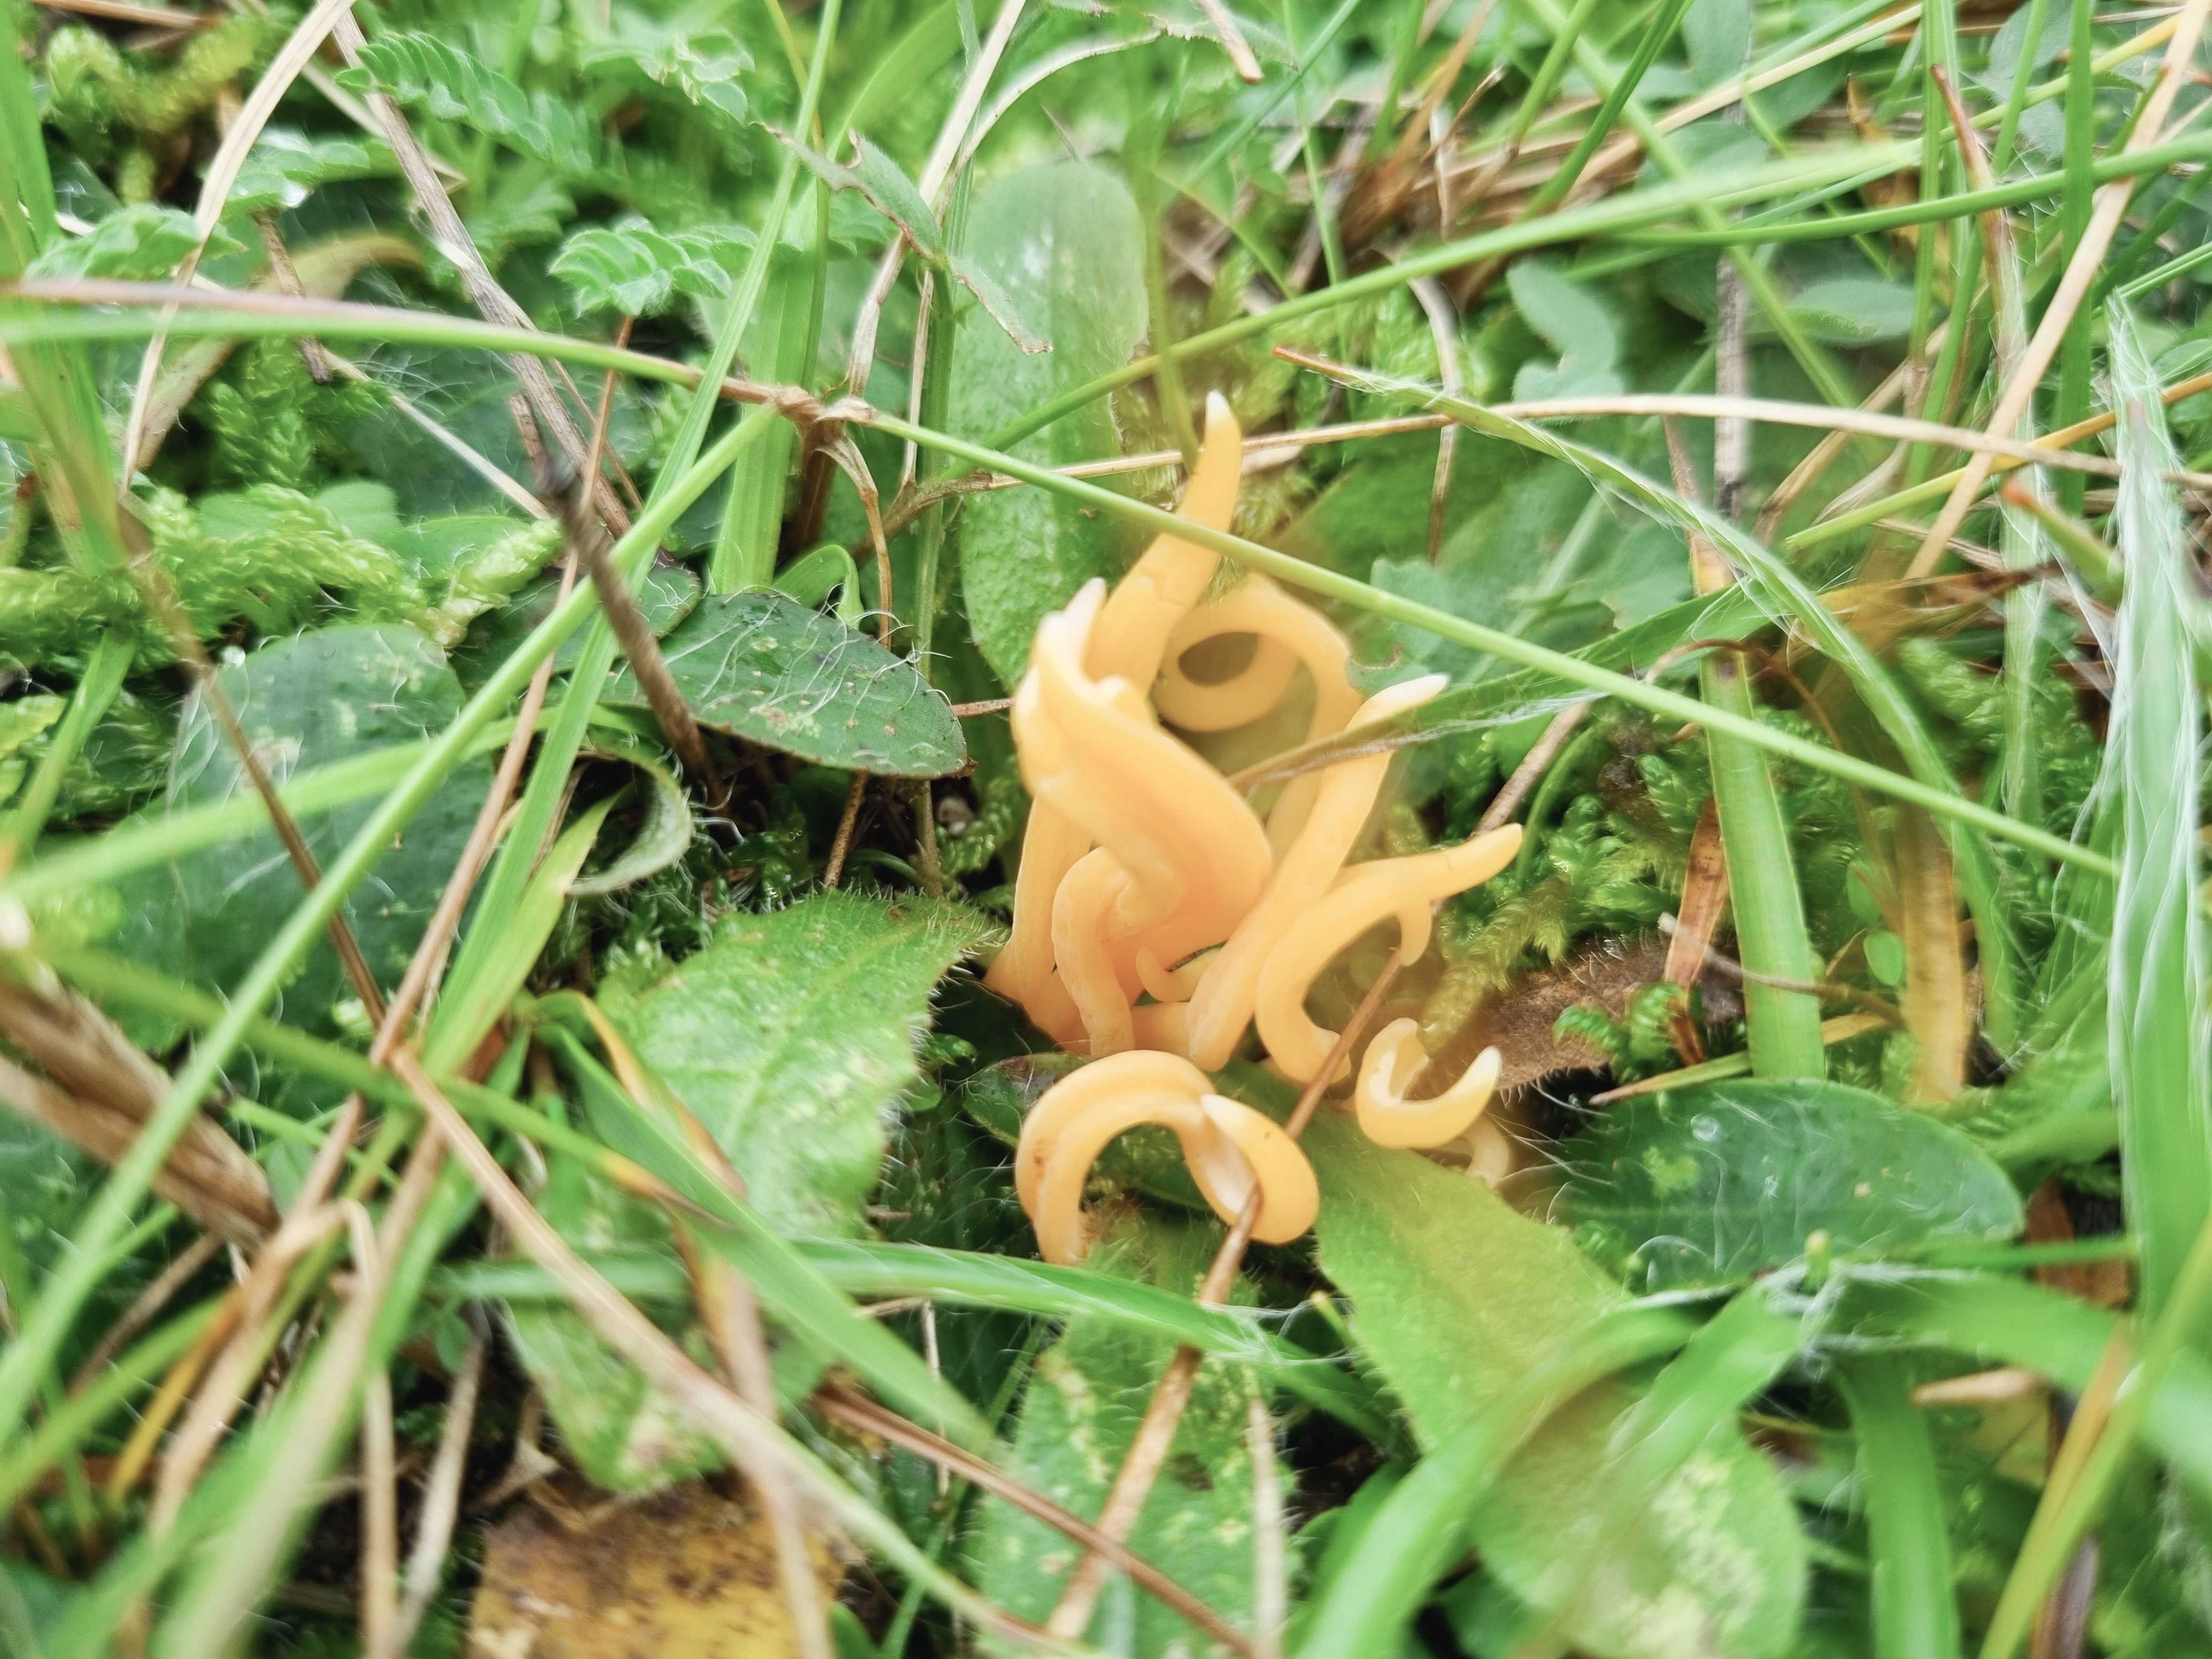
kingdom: Fungi
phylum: Basidiomycota
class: Agaricomycetes
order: Agaricales
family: Clavariaceae
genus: Clavulinopsis
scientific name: Clavulinopsis luteoalba
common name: abrikos-køllesvamp
